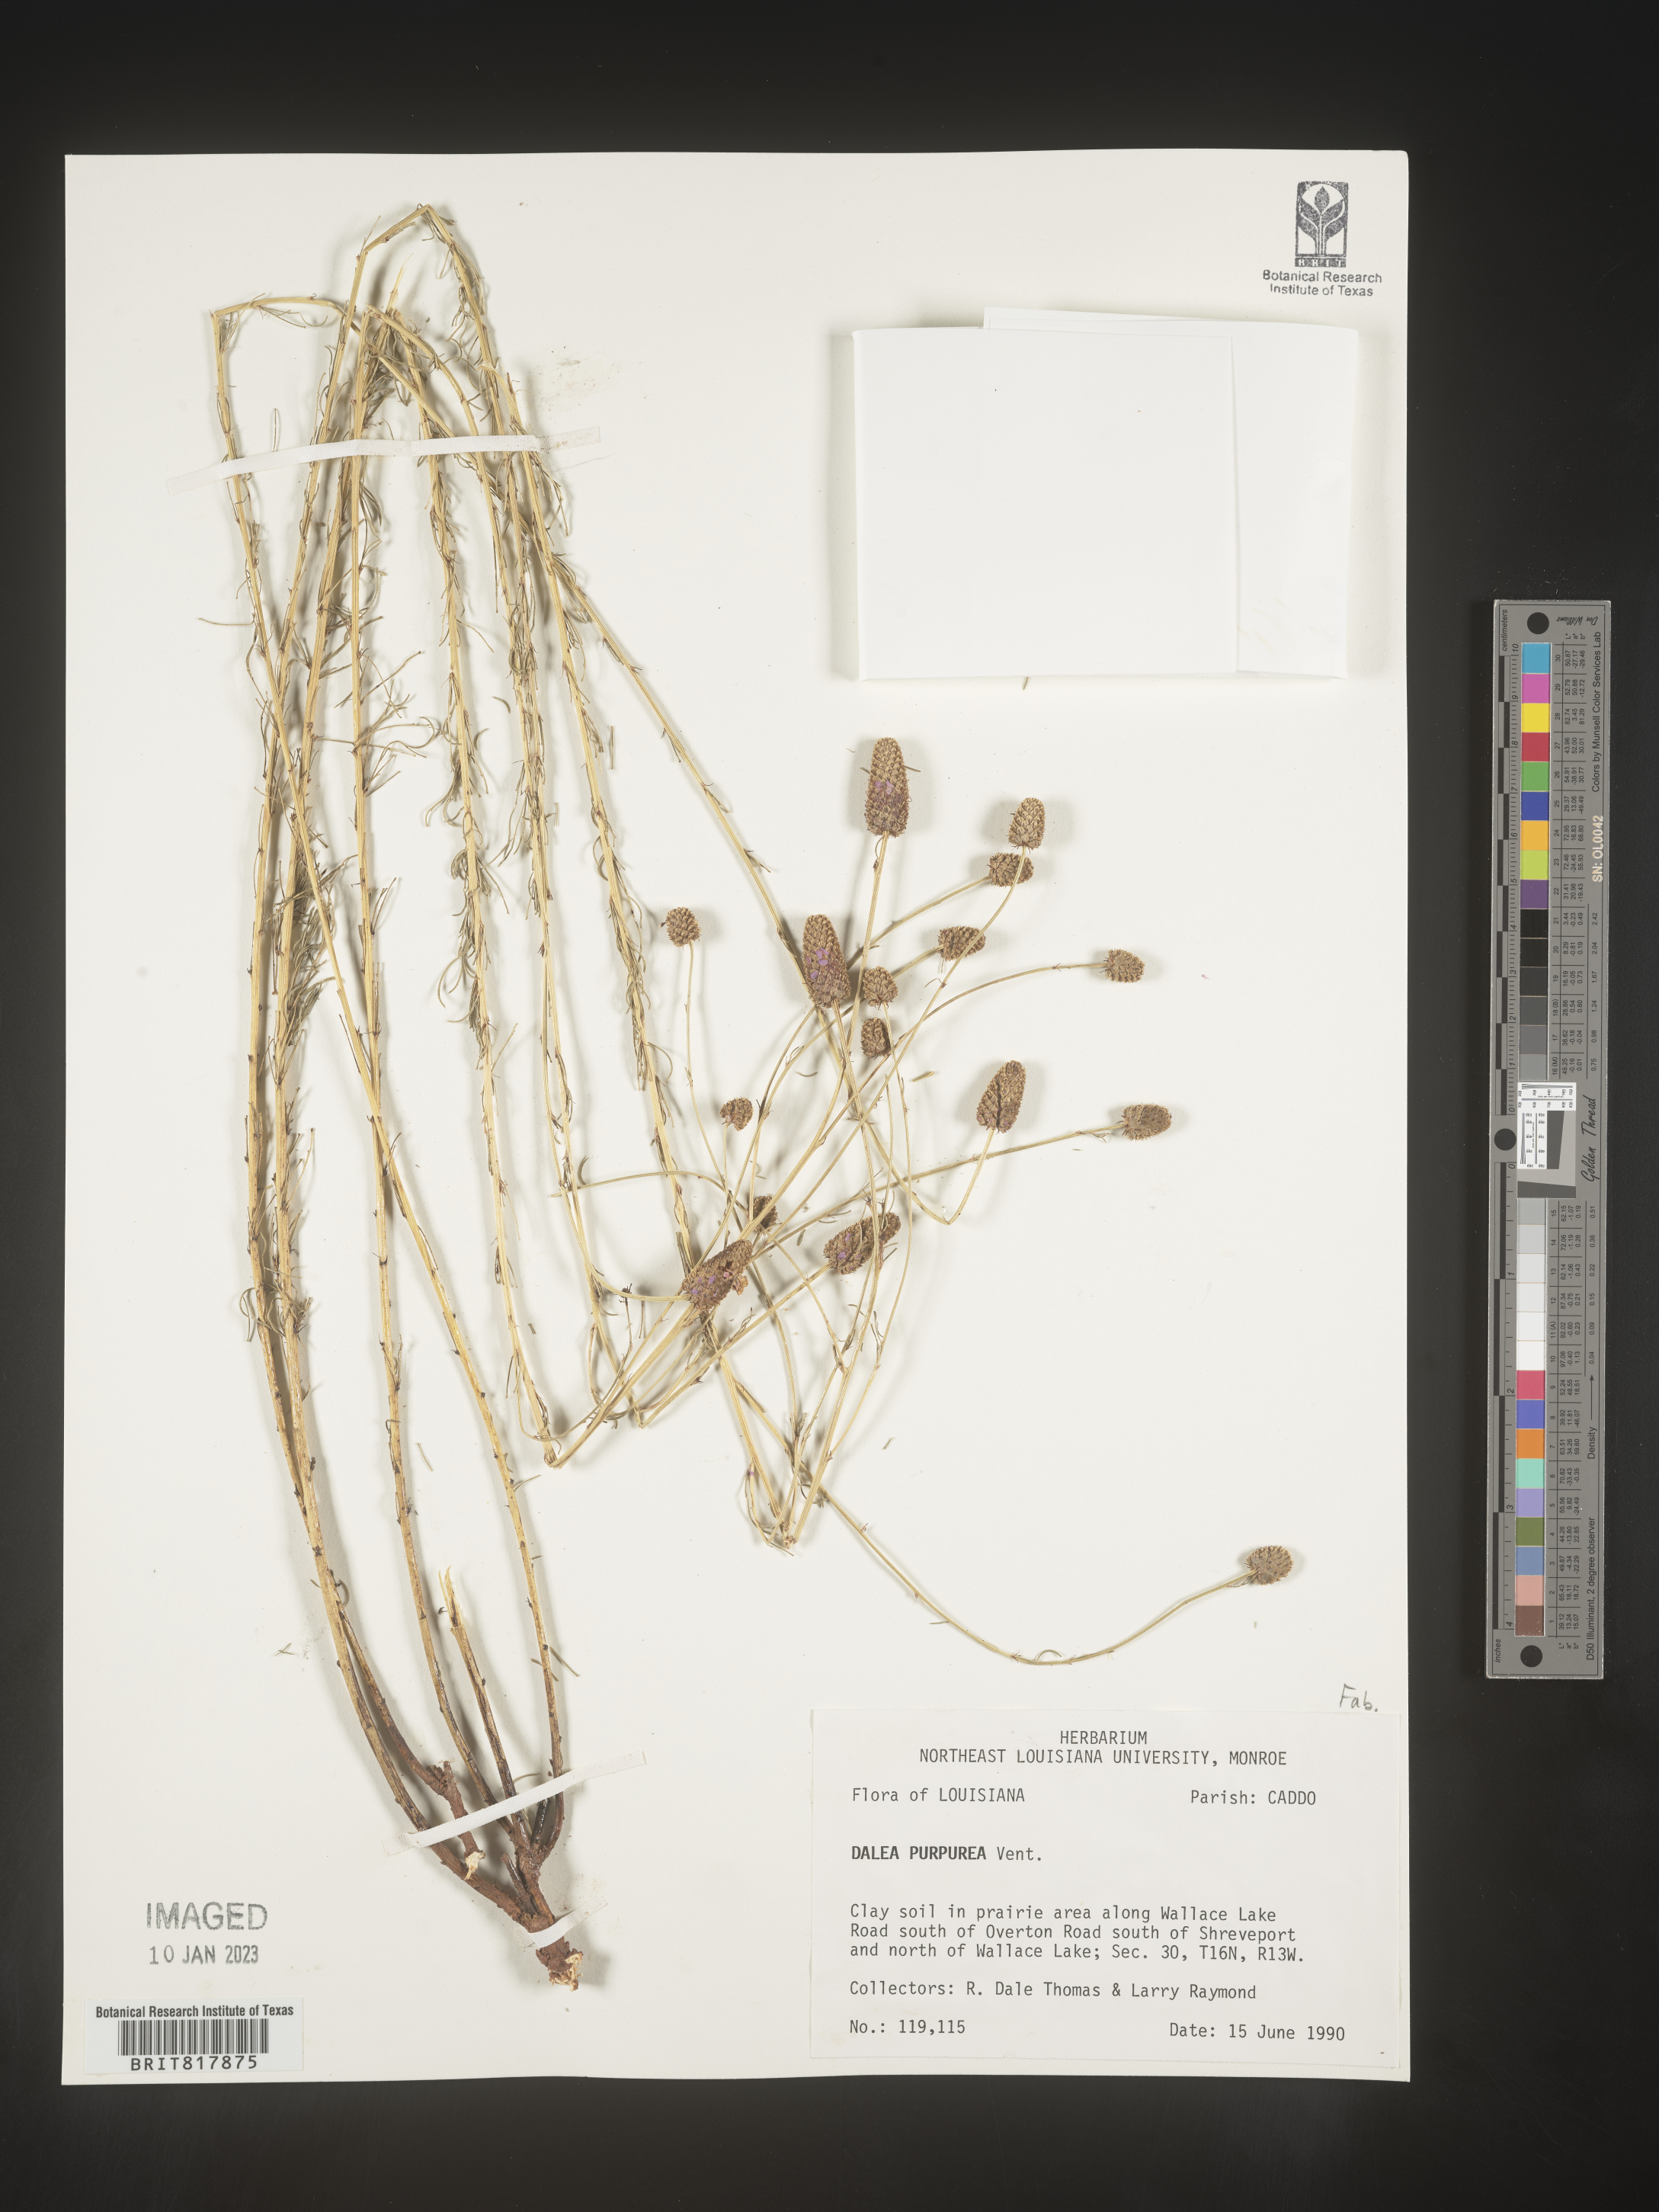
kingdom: Plantae
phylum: Tracheophyta
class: Magnoliopsida
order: Fabales
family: Fabaceae
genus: Dalea
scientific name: Dalea purpurea
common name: Purple prairie-clover
